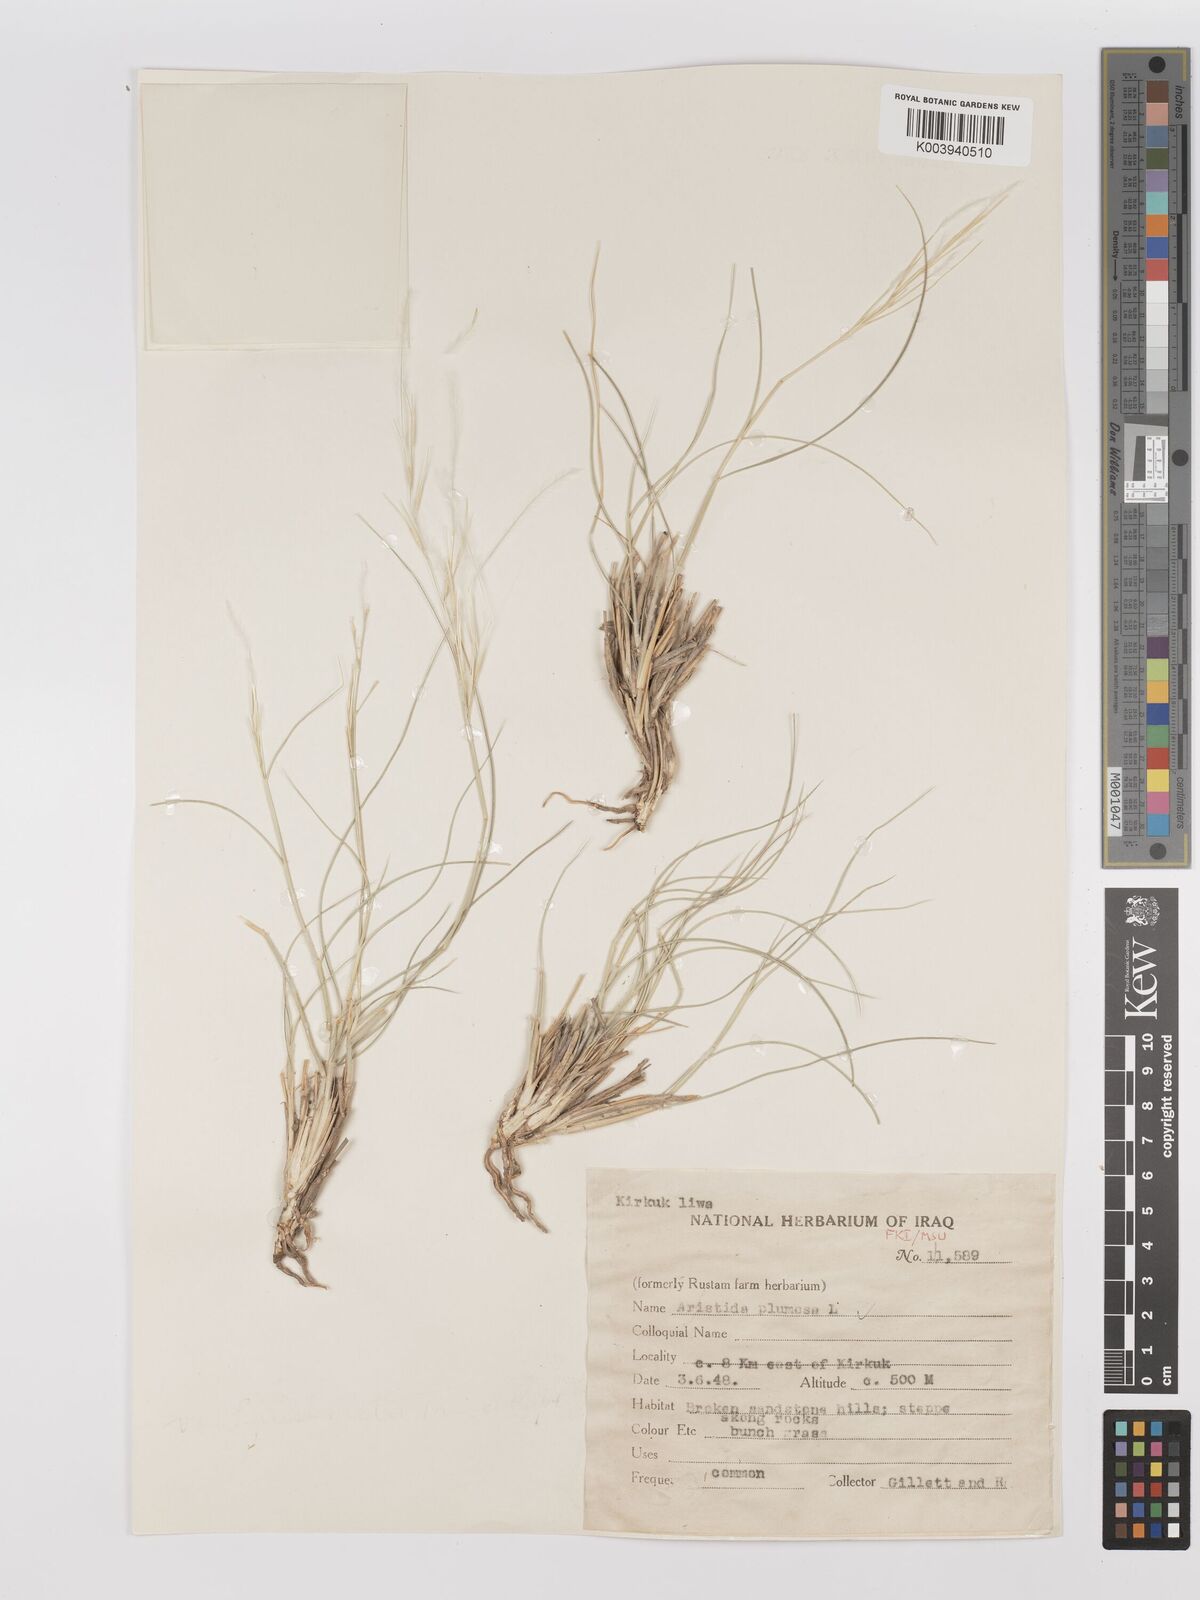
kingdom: Plantae
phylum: Tracheophyta
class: Liliopsida
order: Poales
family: Poaceae
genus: Stipagrostis
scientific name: Stipagrostis plumosa
